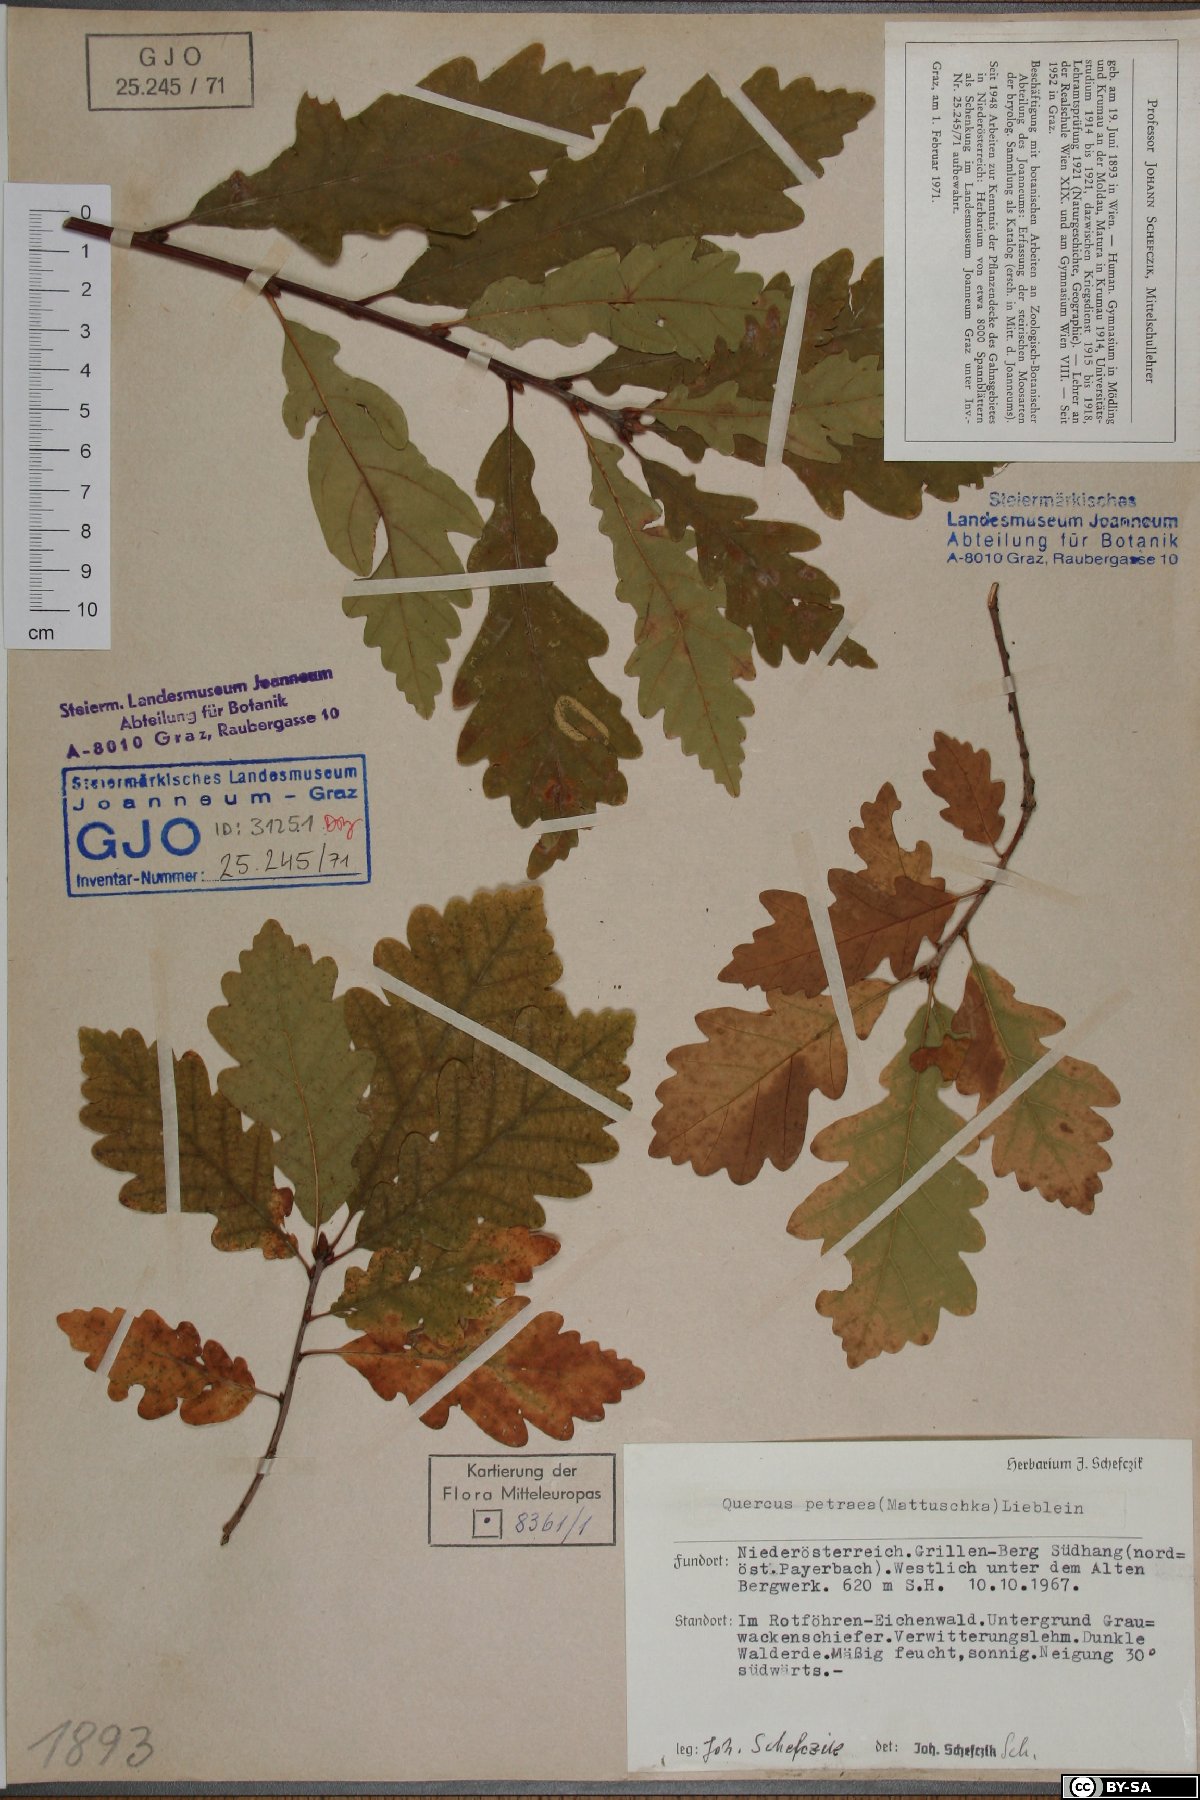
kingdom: Plantae
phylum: Tracheophyta
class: Magnoliopsida
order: Fagales
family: Fagaceae
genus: Quercus
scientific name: Quercus petraea
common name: Sessile oak
